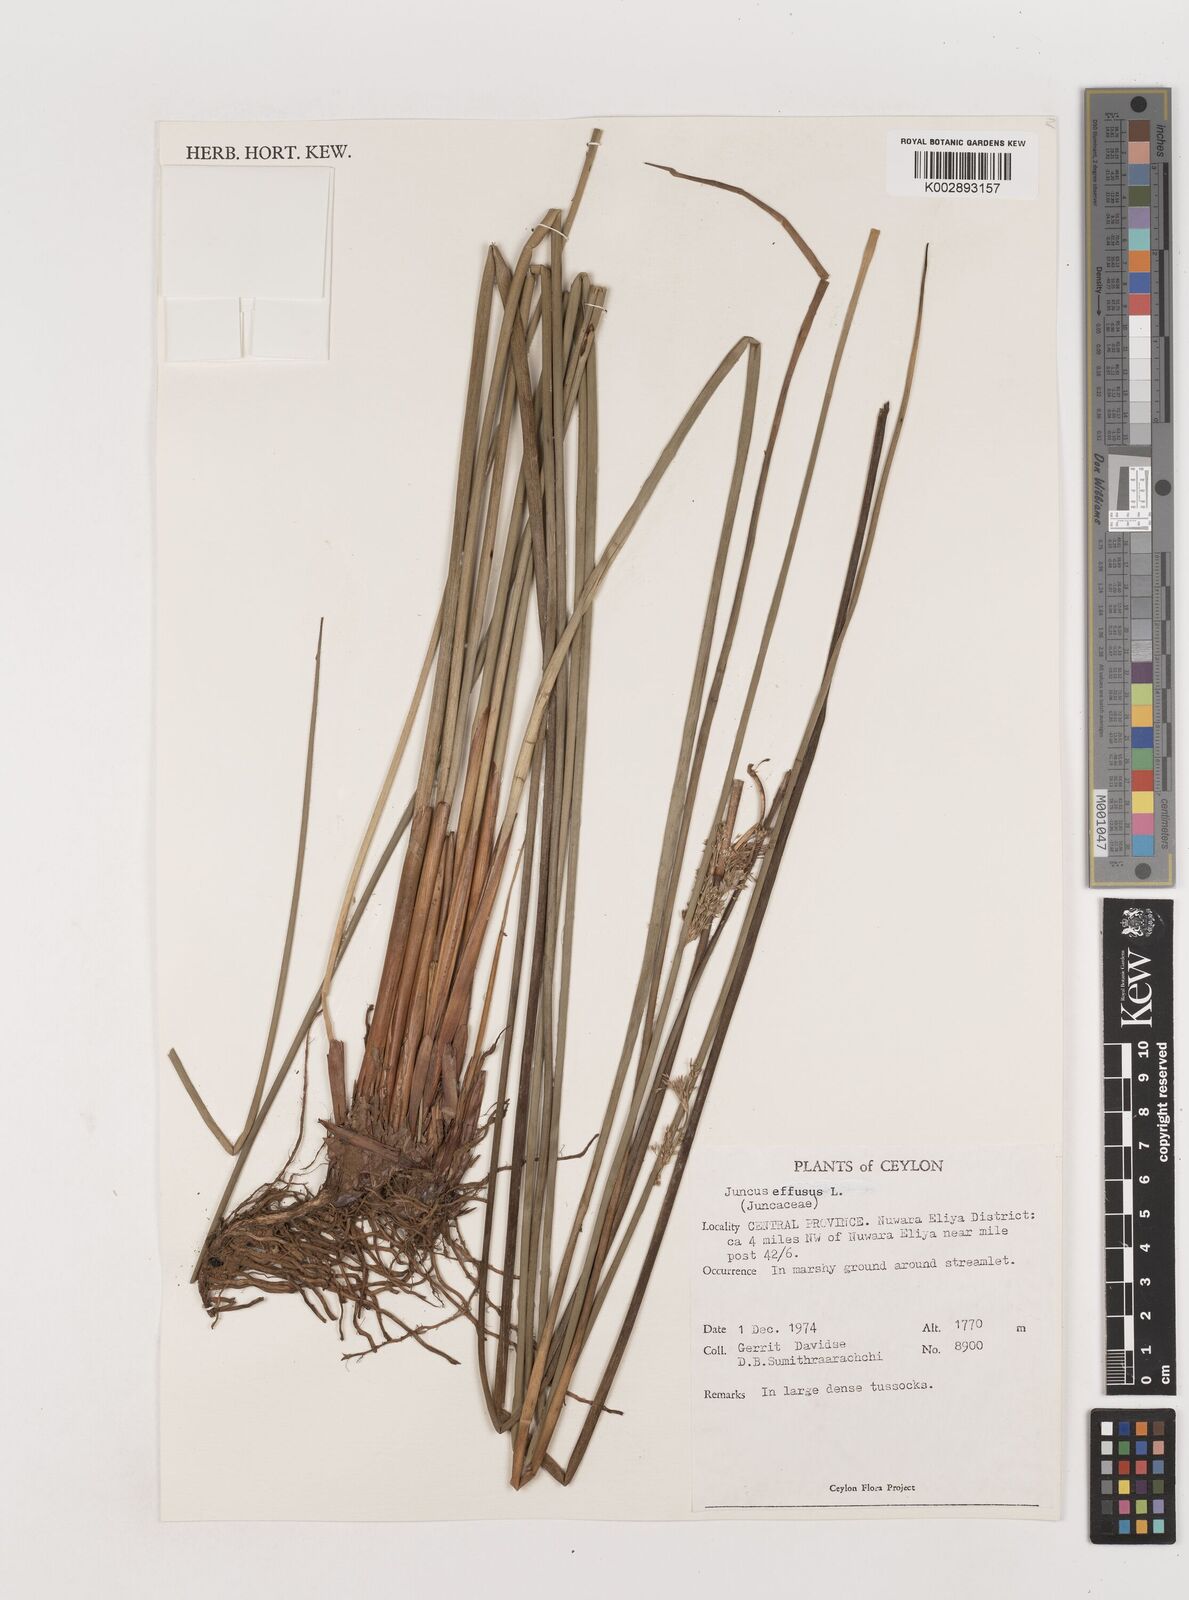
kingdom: Plantae
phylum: Tracheophyta
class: Liliopsida
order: Poales
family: Juncaceae
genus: Juncus
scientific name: Juncus effusus
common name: Soft rush
